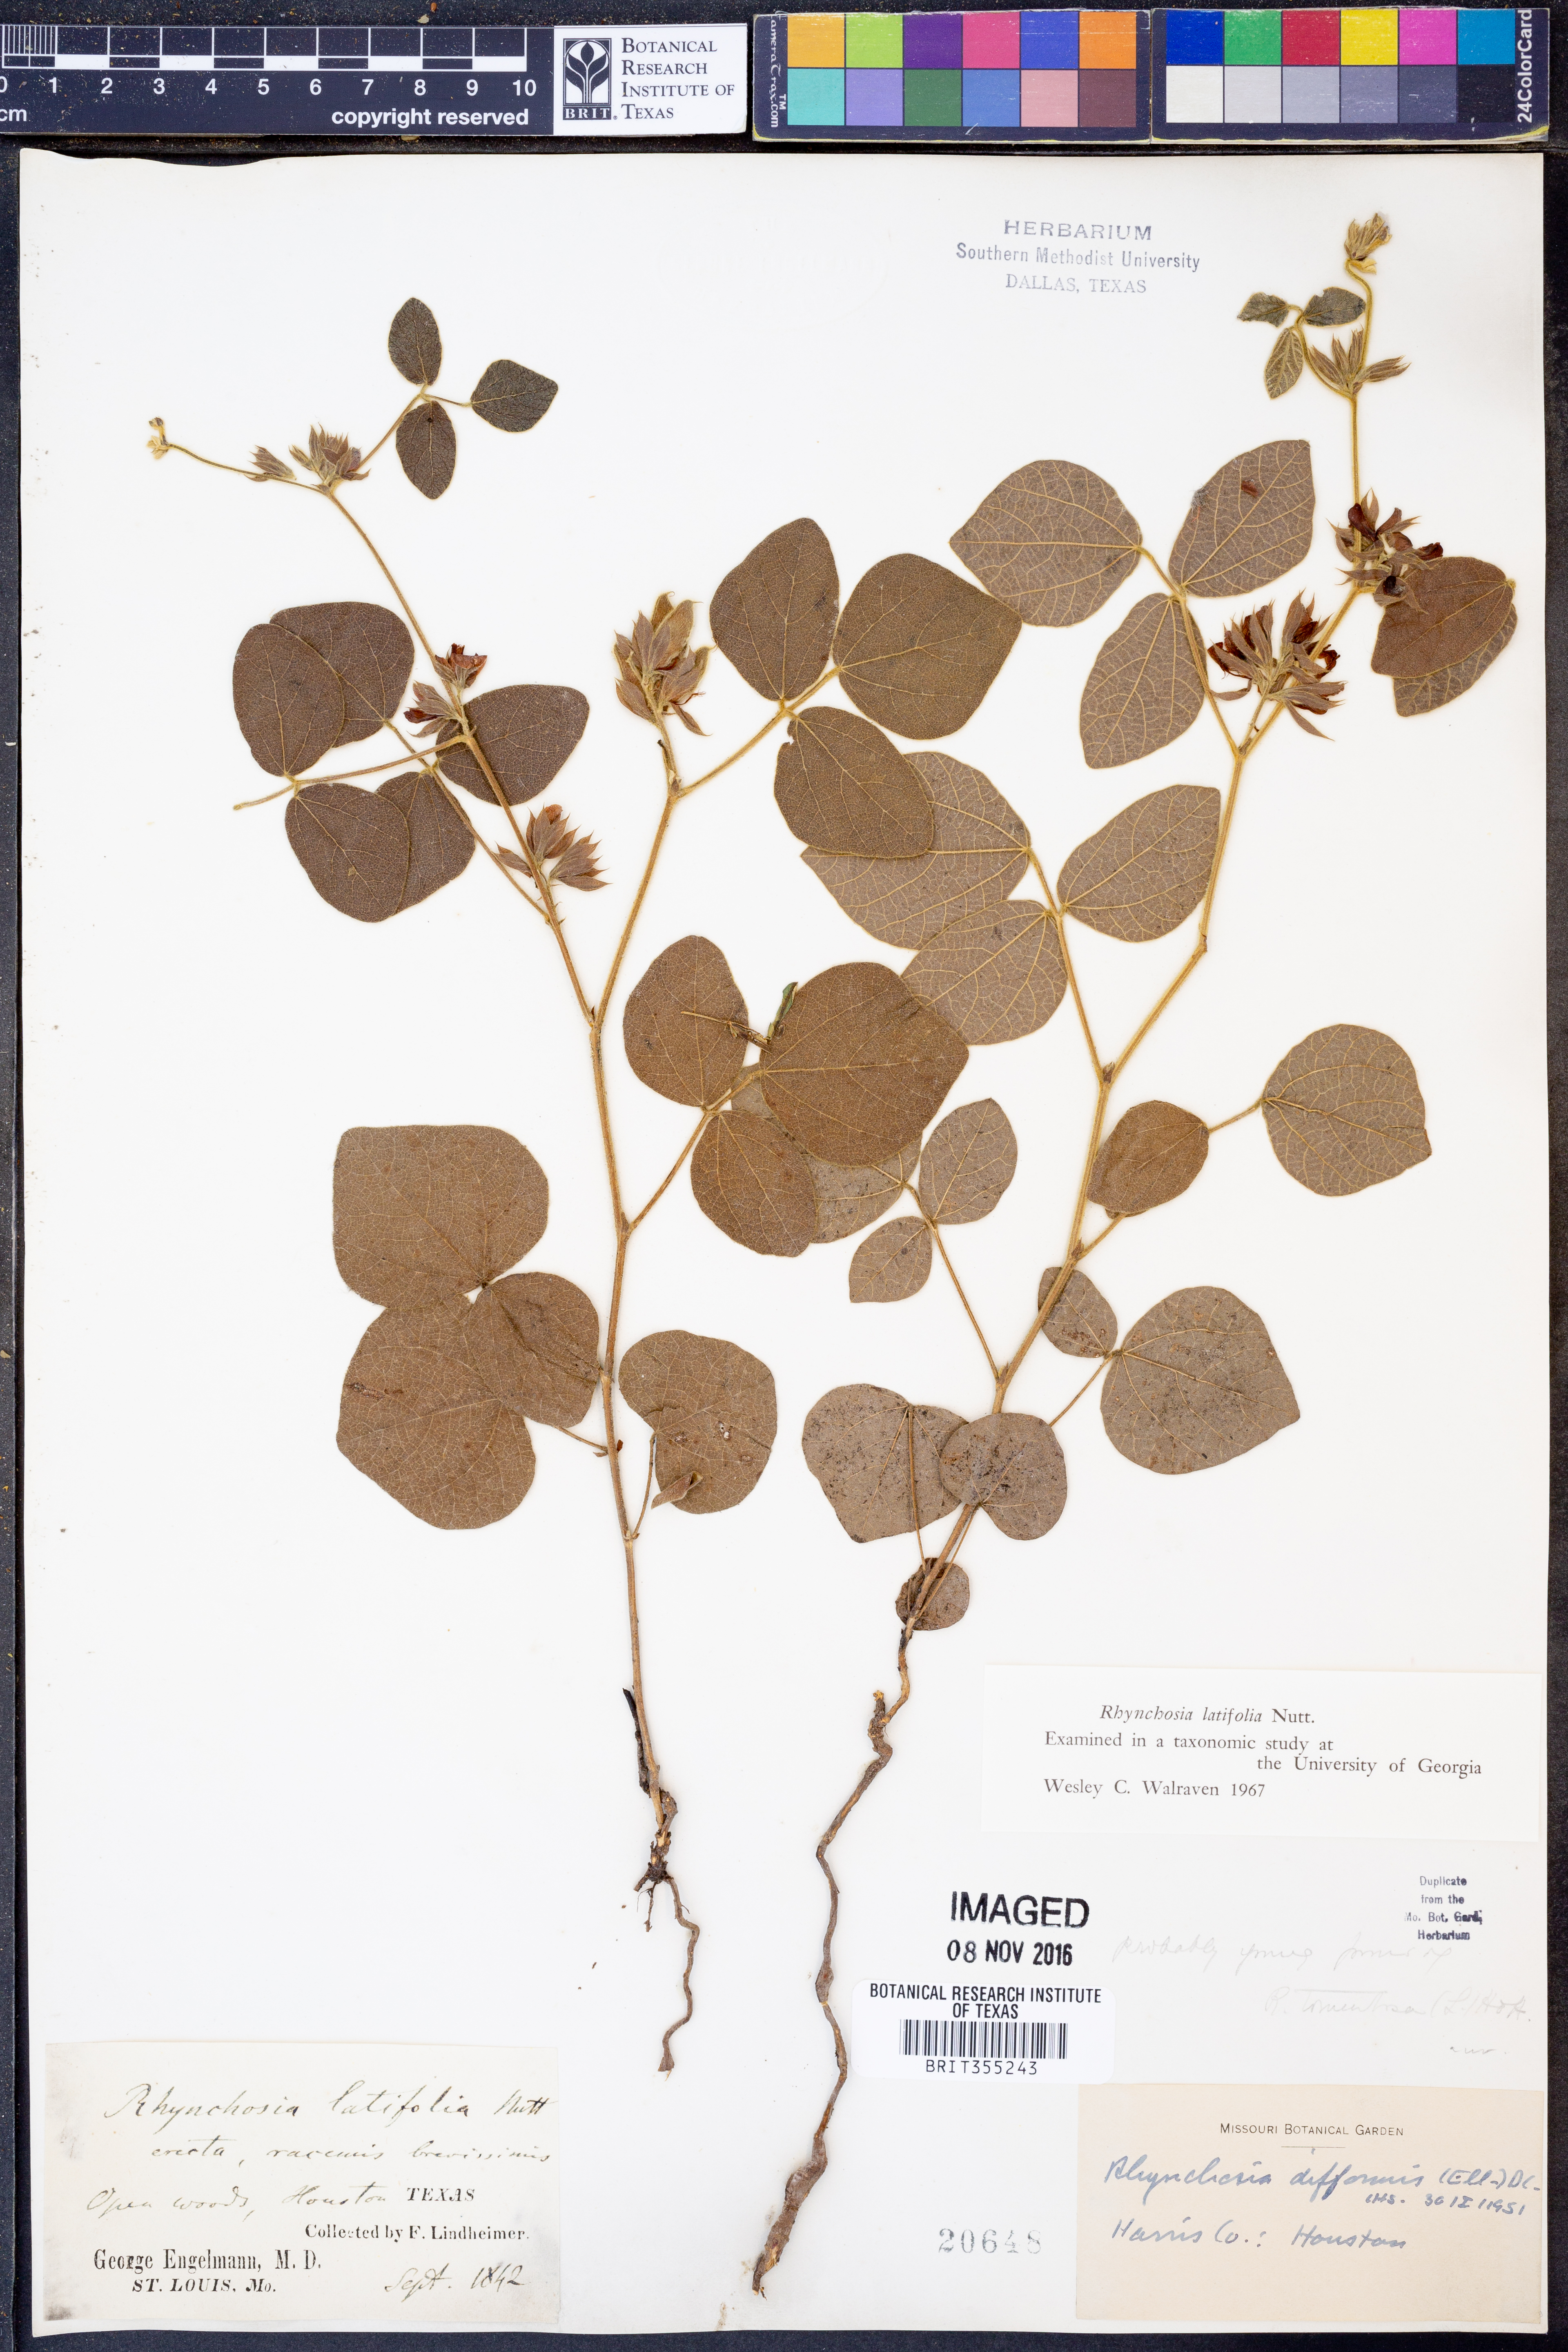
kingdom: Plantae
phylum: Tracheophyta
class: Magnoliopsida
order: Fabales
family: Fabaceae
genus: Rhynchosia
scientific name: Rhynchosia latifolia
